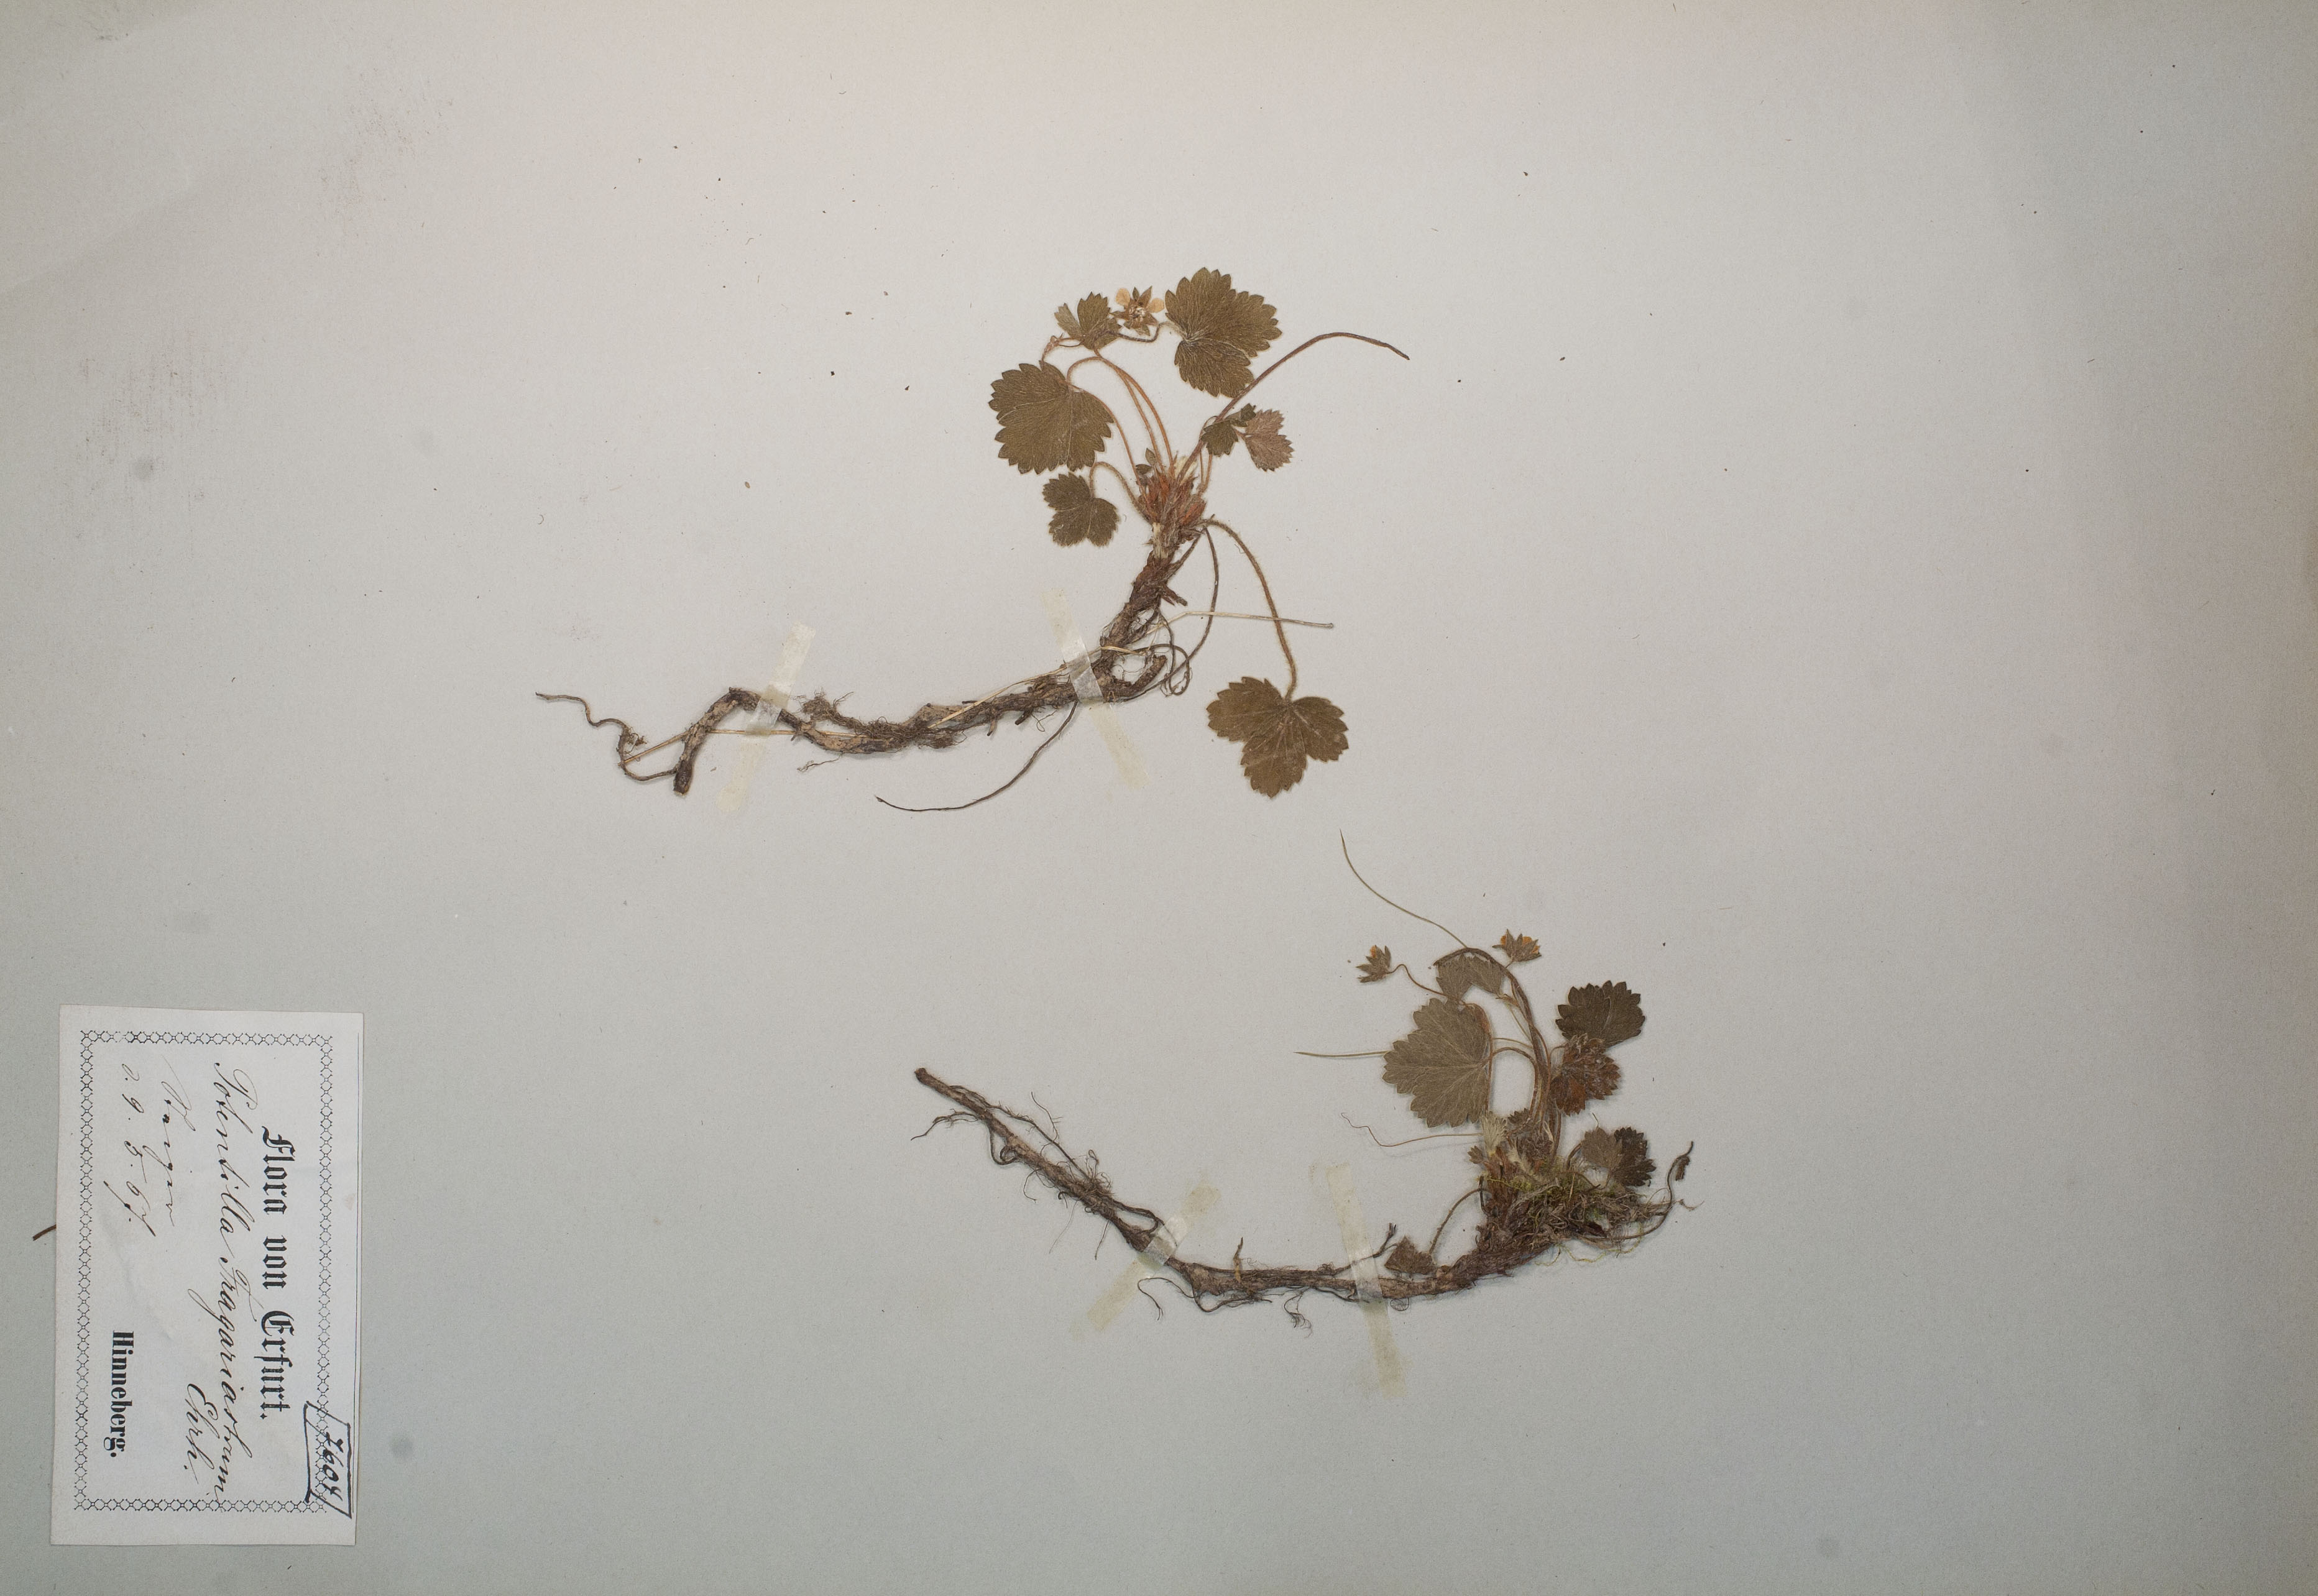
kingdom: Plantae
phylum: Tracheophyta
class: Magnoliopsida
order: Rosales
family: Rosaceae
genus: Potentilla
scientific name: Potentilla sterilis
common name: Barren strawberry
